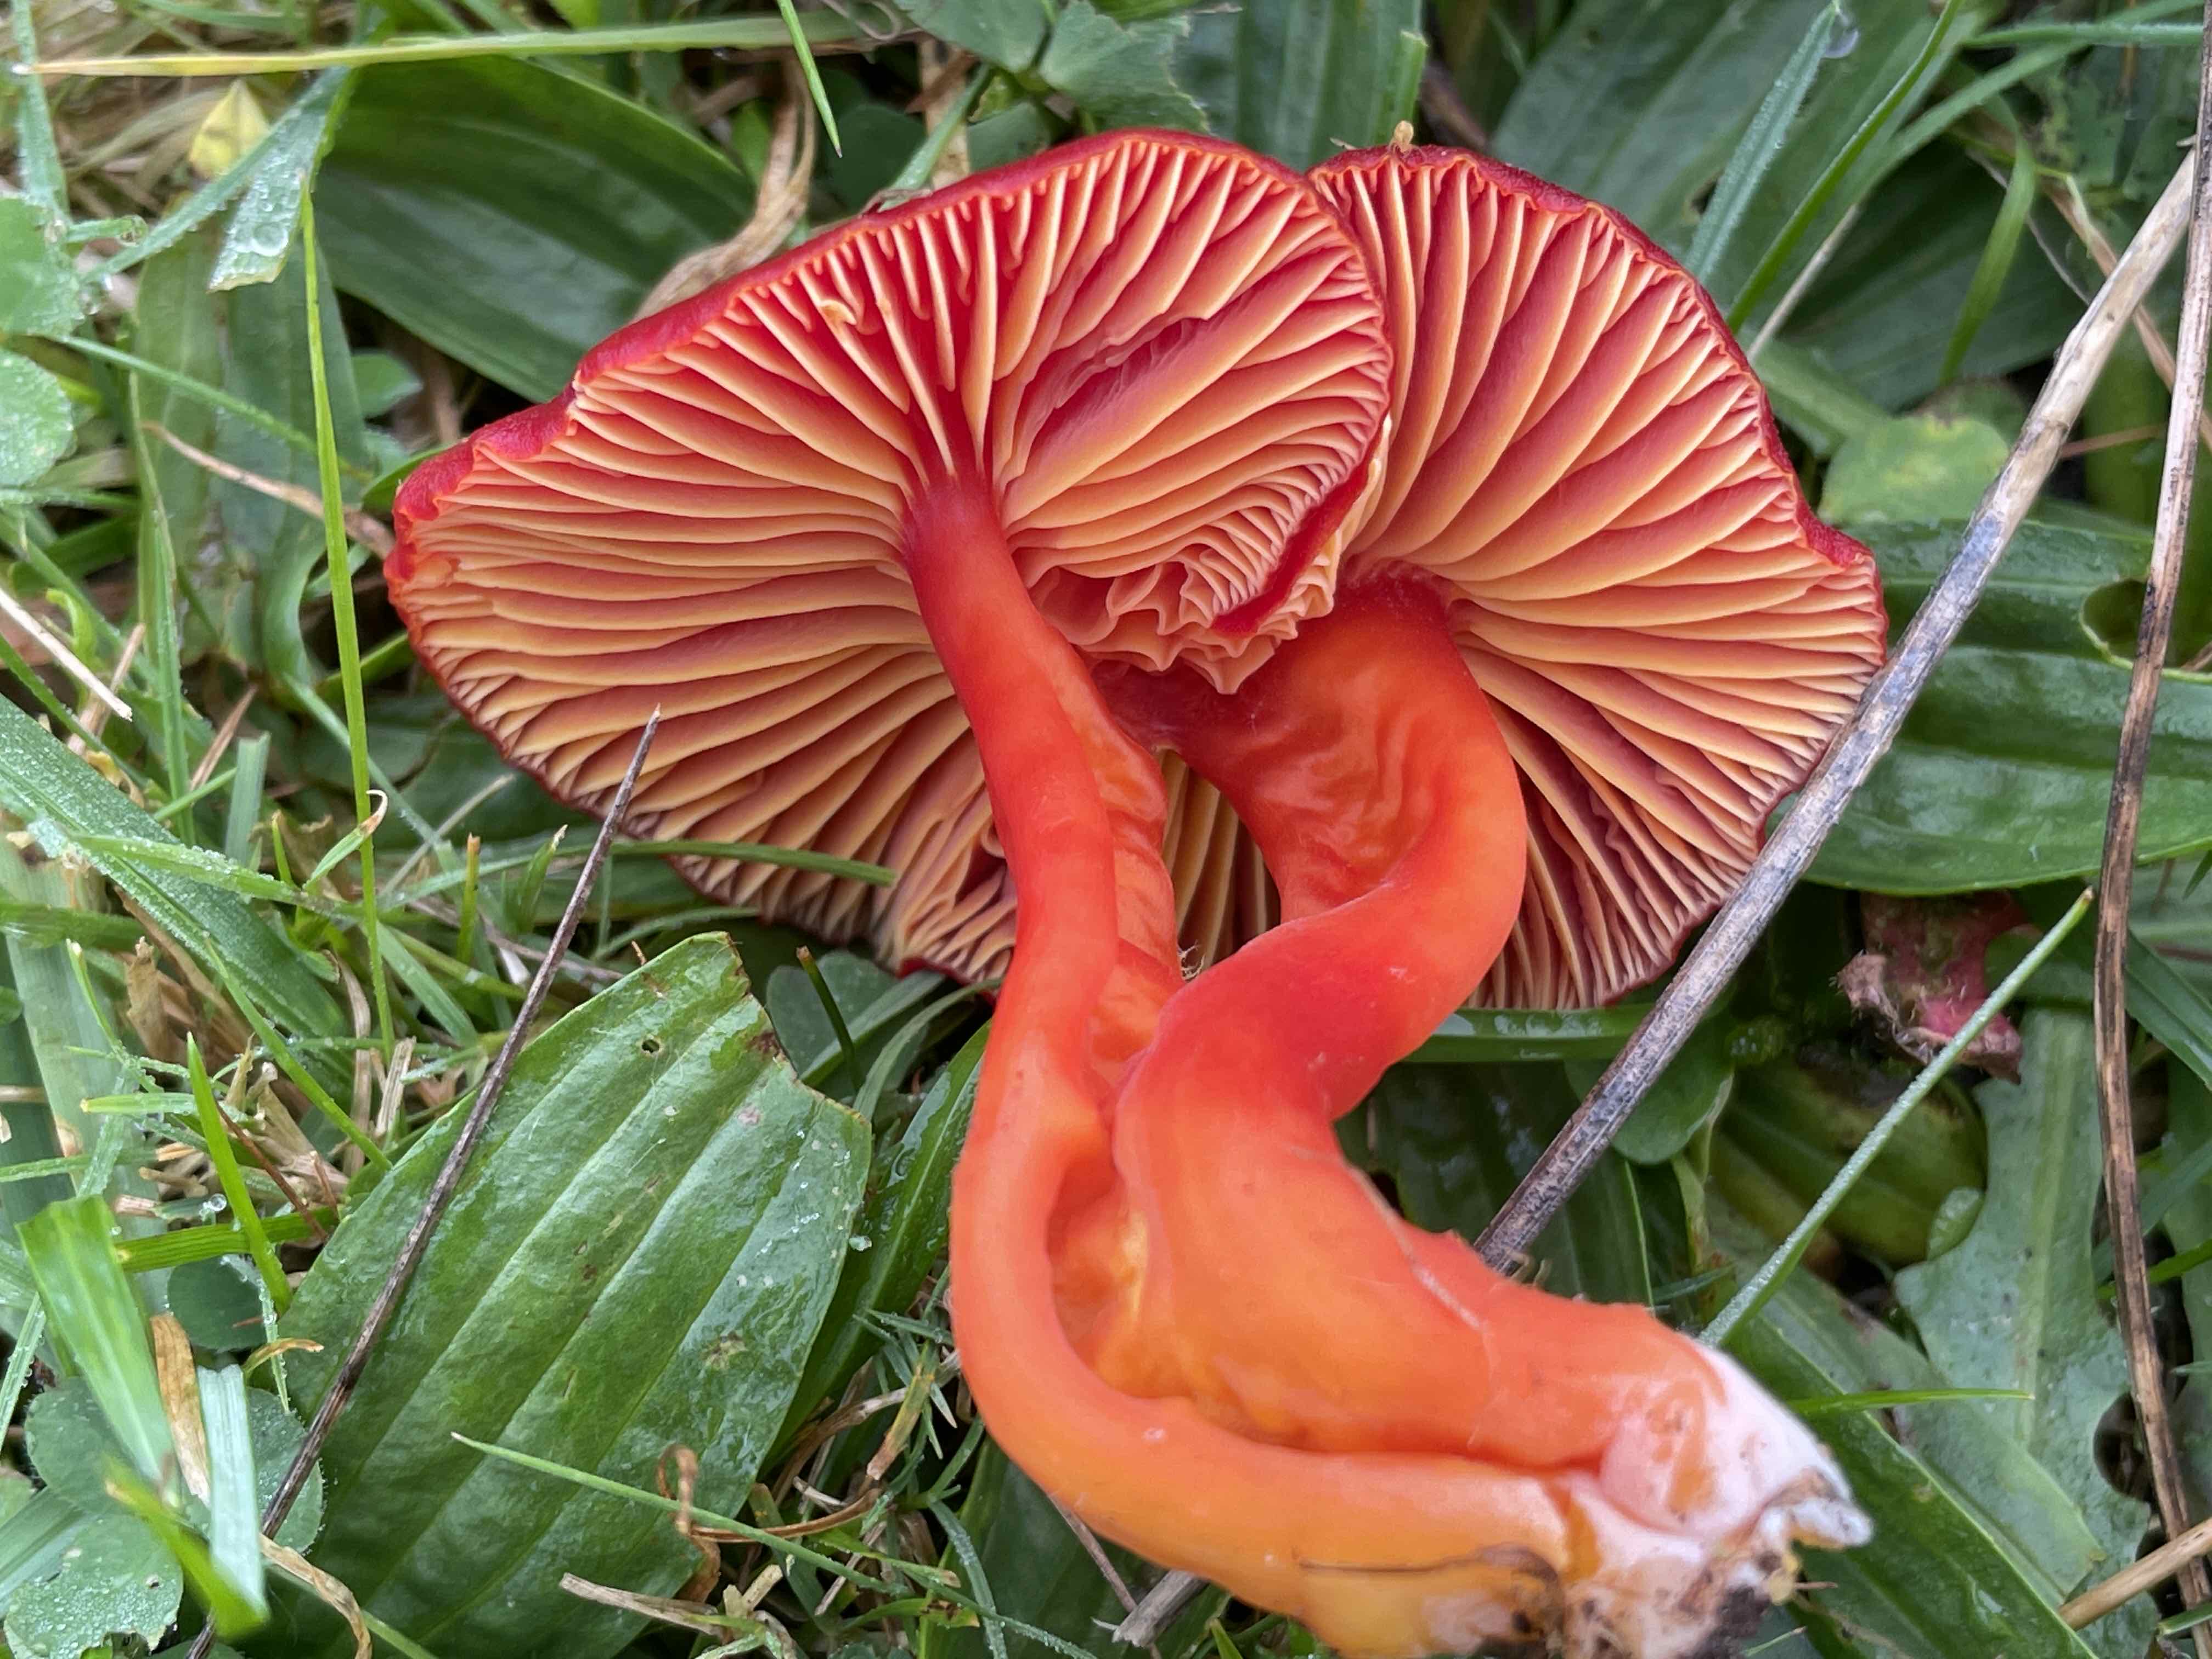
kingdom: Fungi
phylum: Basidiomycota
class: Agaricomycetes
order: Agaricales
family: Hygrophoraceae
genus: Hygrocybe
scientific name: Hygrocybe coccinea
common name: cinnober-vokshat
